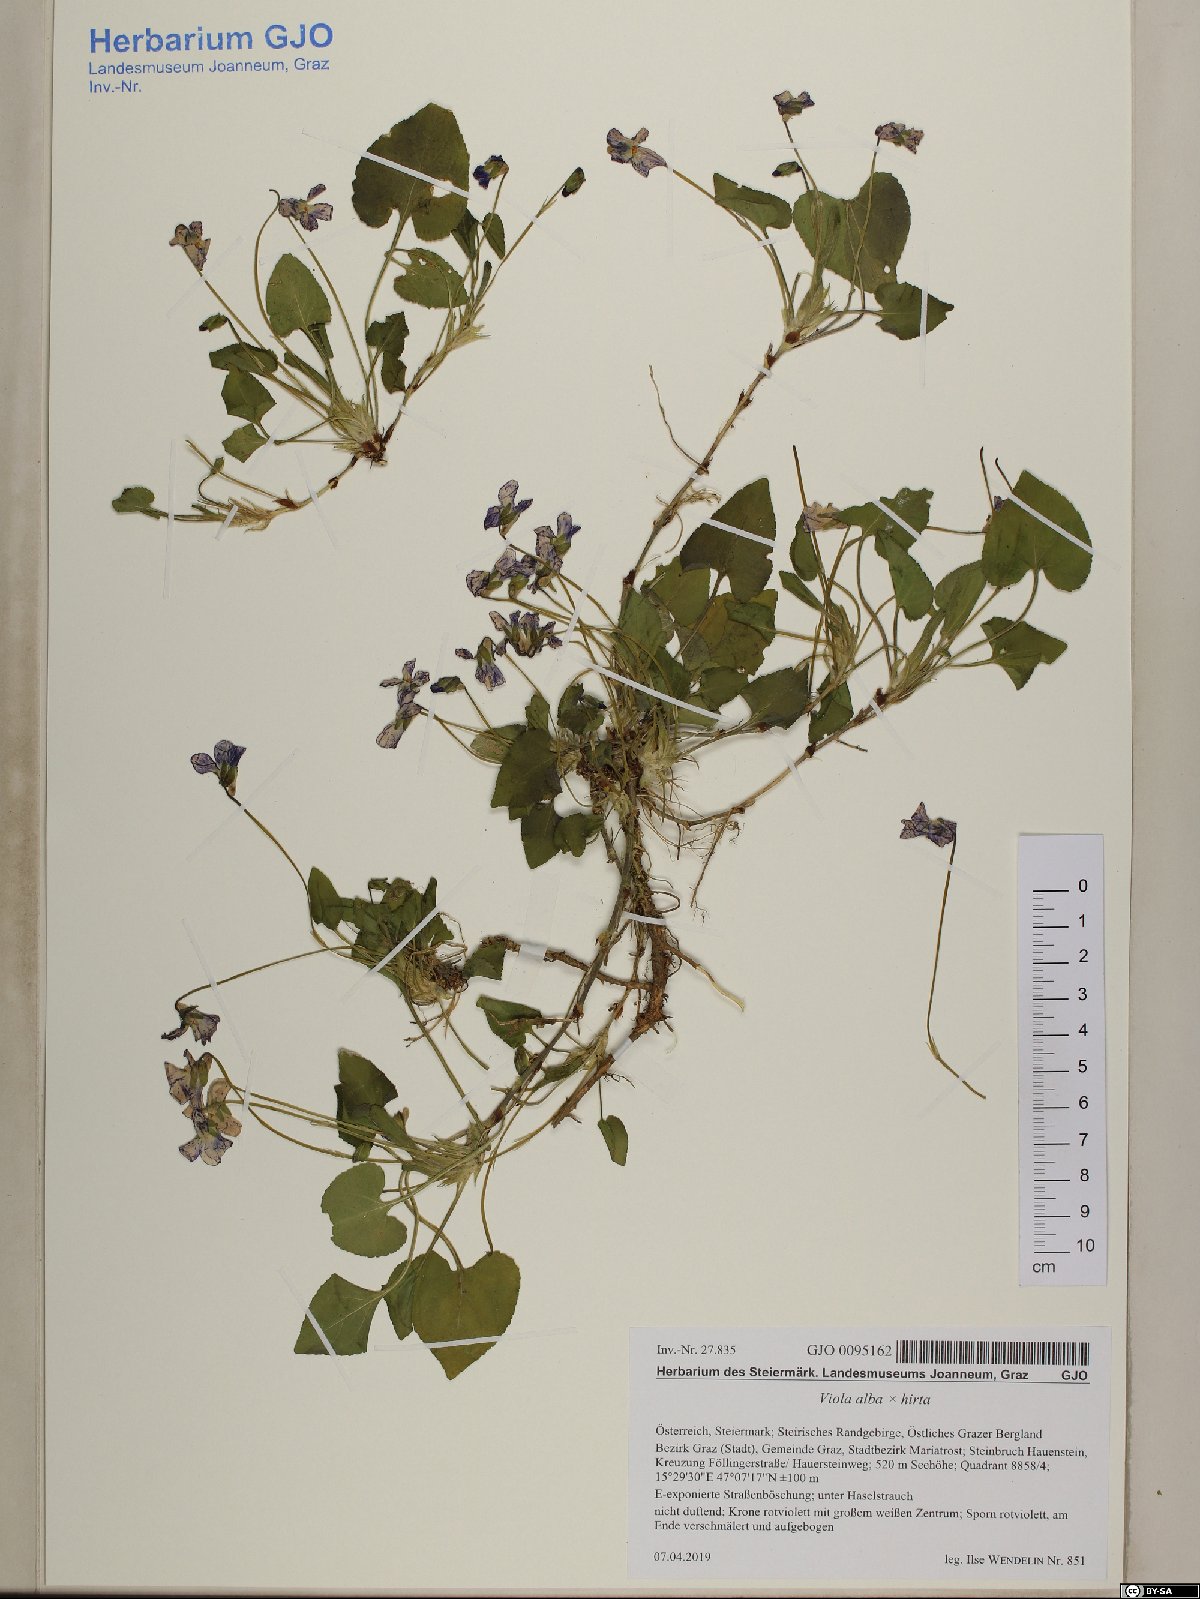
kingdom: Plantae
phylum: Tracheophyta
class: Magnoliopsida
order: Malpighiales
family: Violaceae
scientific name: Violaceae
